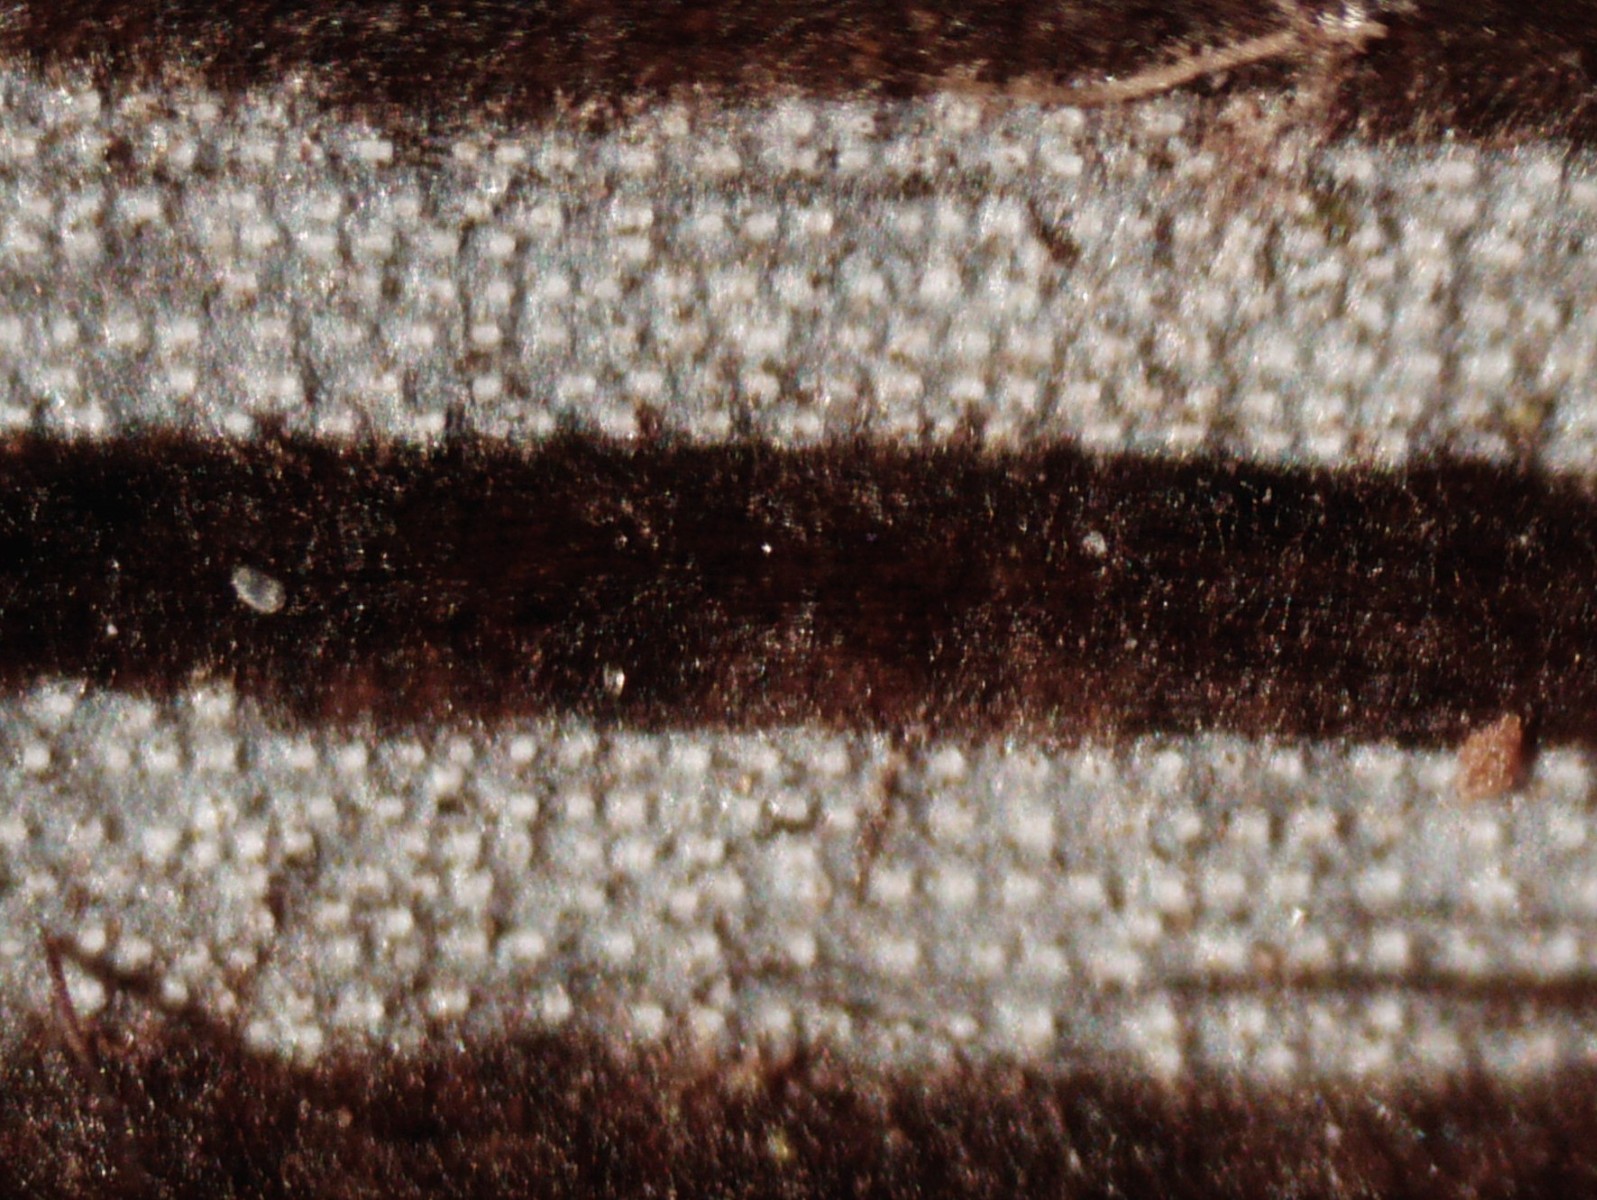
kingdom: Fungi
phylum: Ascomycota
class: Eurotiomycetes
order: Eurotiales
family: Aspergillaceae
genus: Penicillium
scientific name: Penicillium glaucoalbidum
